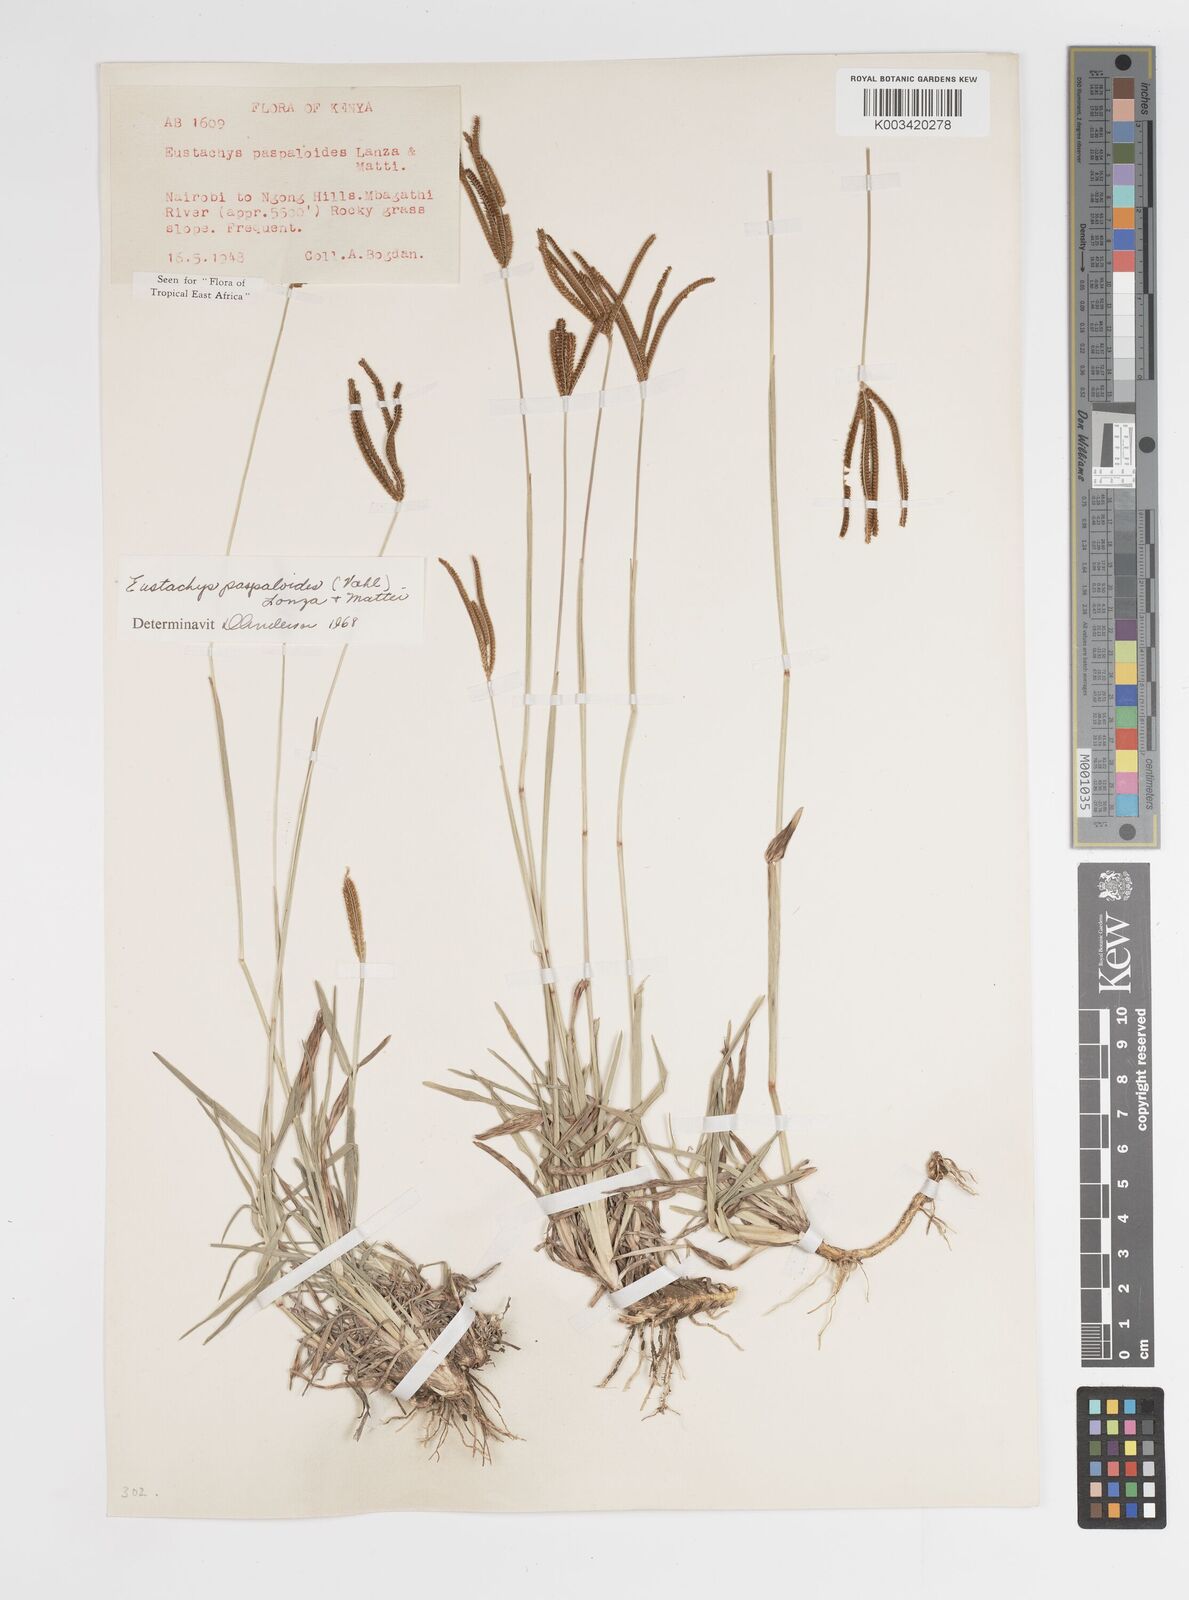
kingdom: Plantae
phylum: Tracheophyta
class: Liliopsida
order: Poales
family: Poaceae
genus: Eustachys
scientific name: Eustachys paspaloides
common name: Caribbean fingergrass
